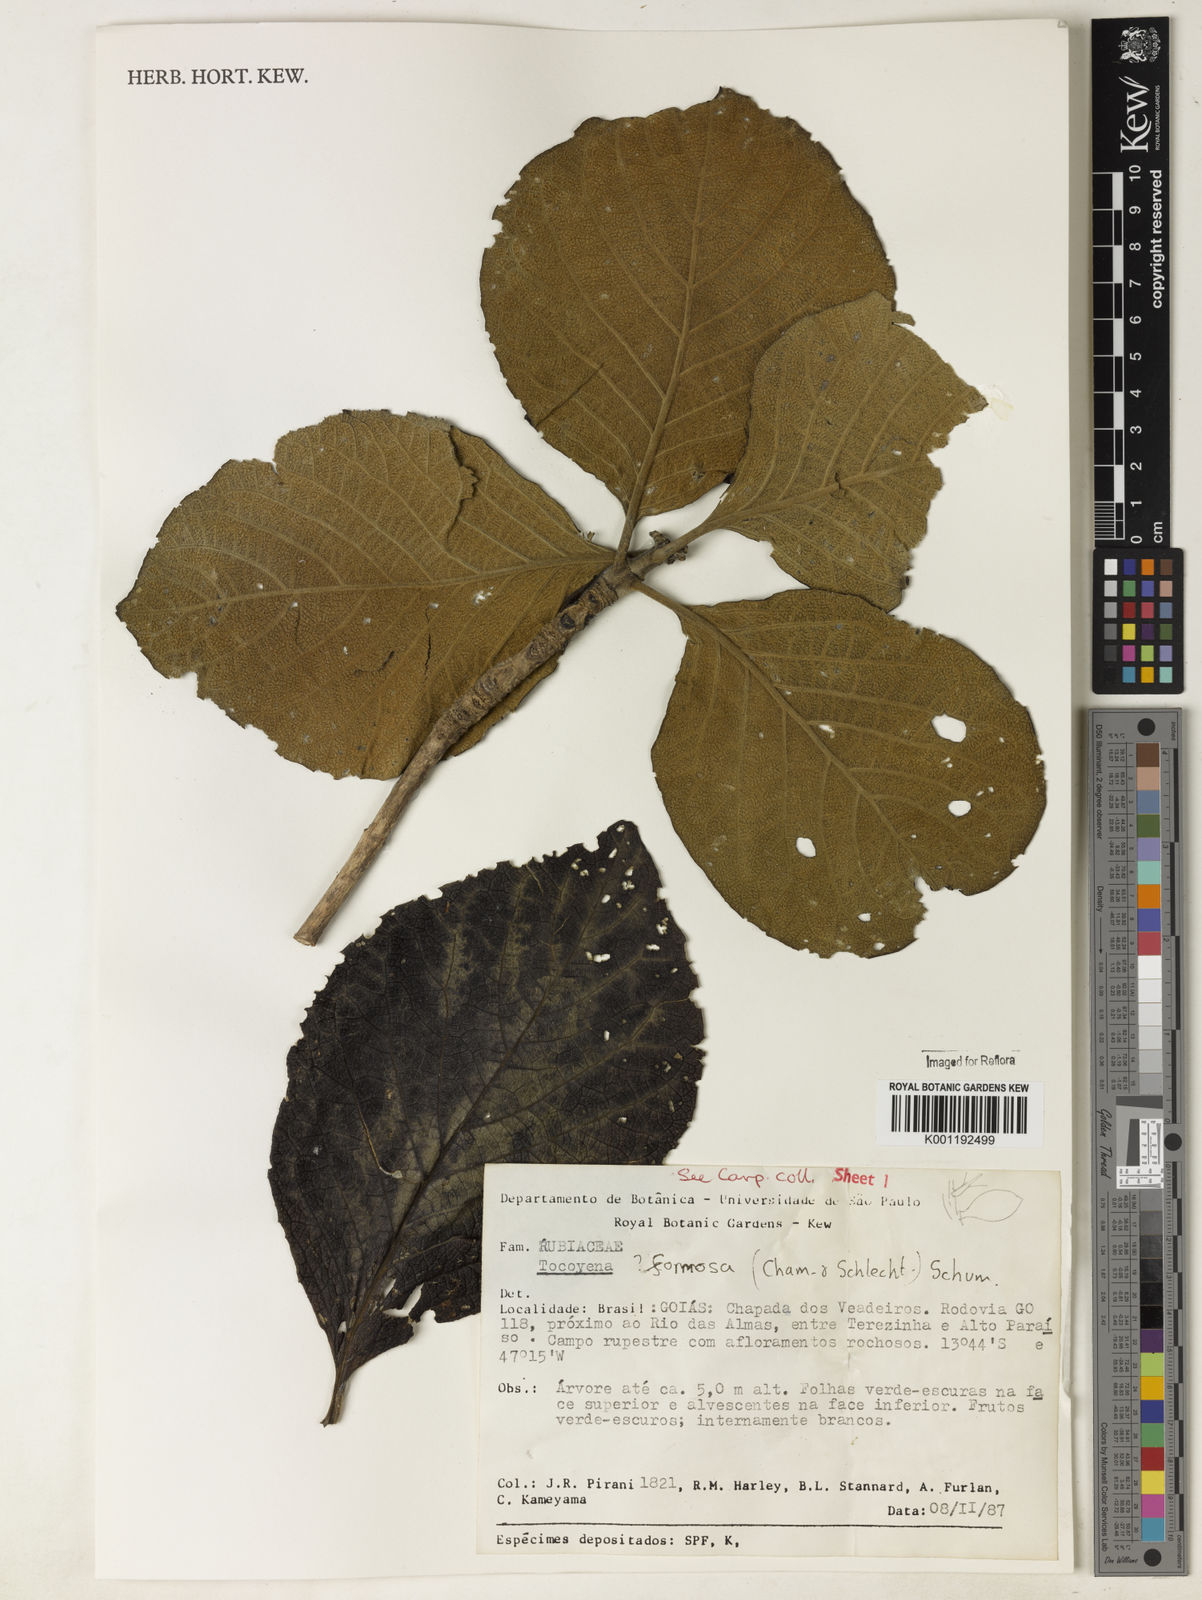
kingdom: Plantae
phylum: Tracheophyta
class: Magnoliopsida
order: Gentianales
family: Rubiaceae
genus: Tocoyena
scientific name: Tocoyena formosa
